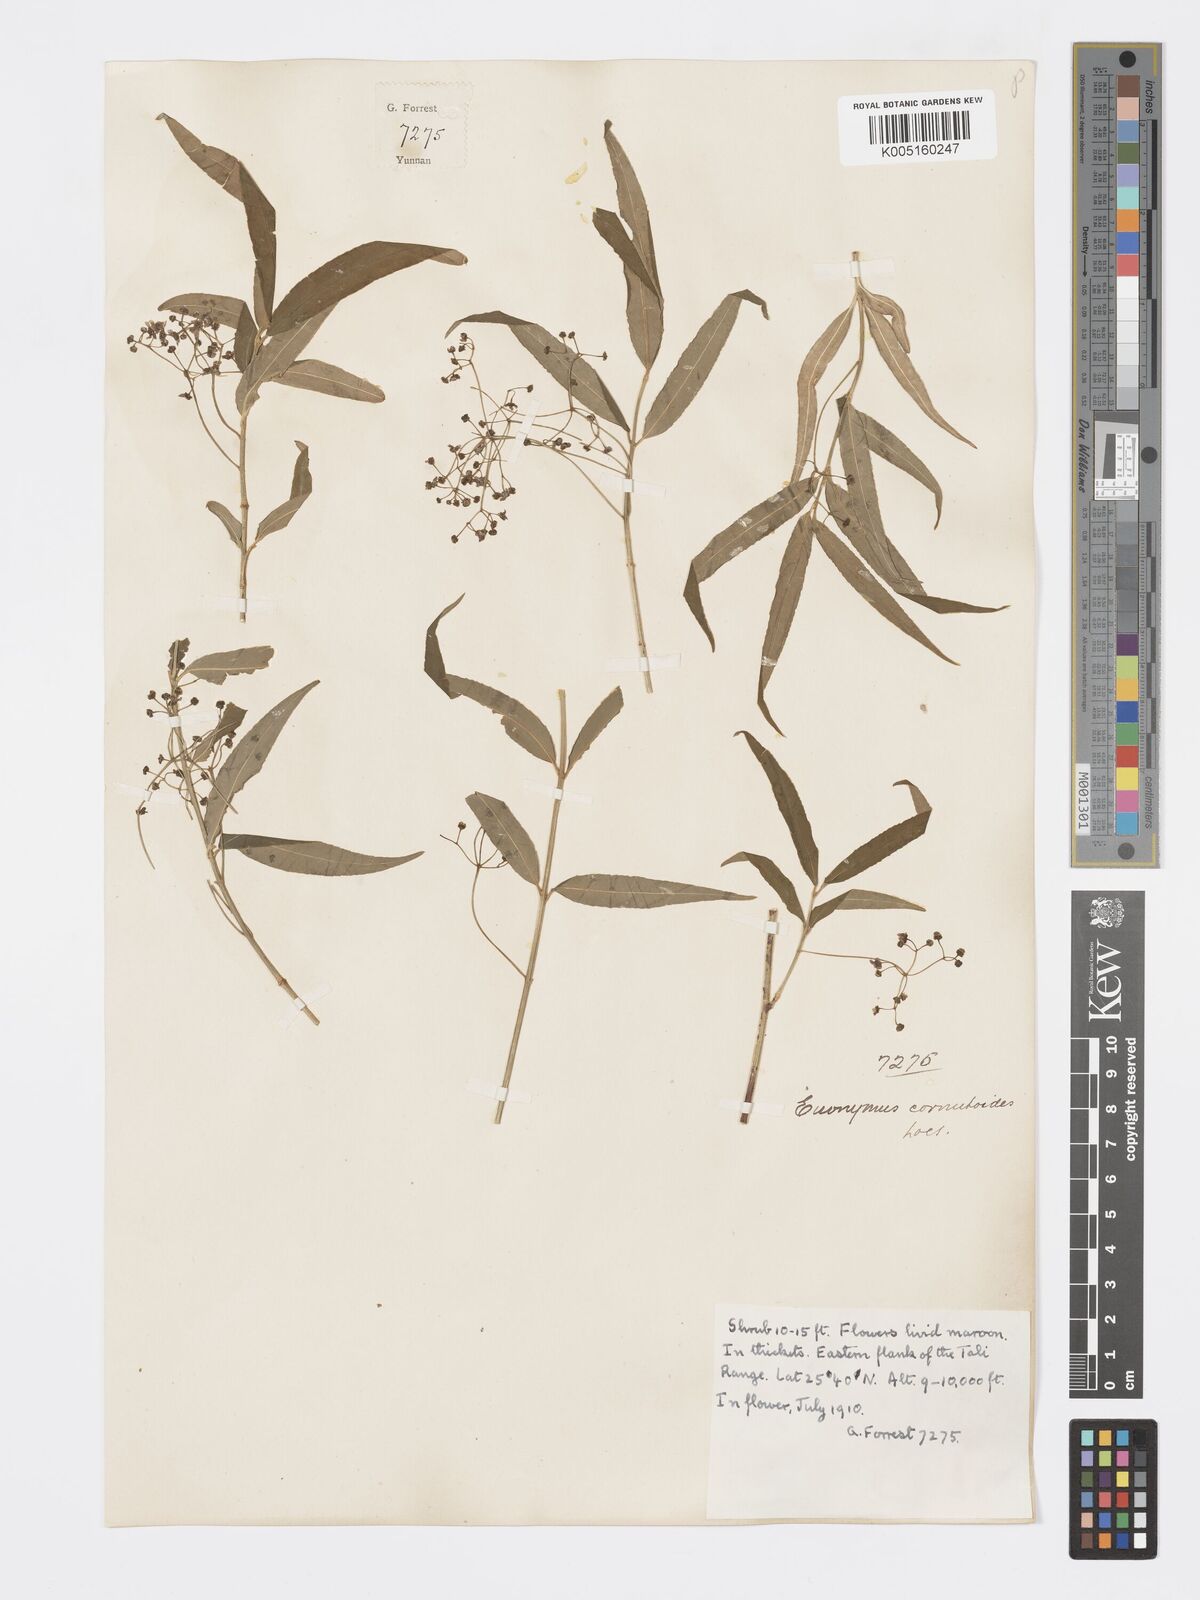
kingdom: Plantae
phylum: Tracheophyta
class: Magnoliopsida
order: Celastrales
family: Celastraceae
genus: Euonymus
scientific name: Euonymus cornutus
